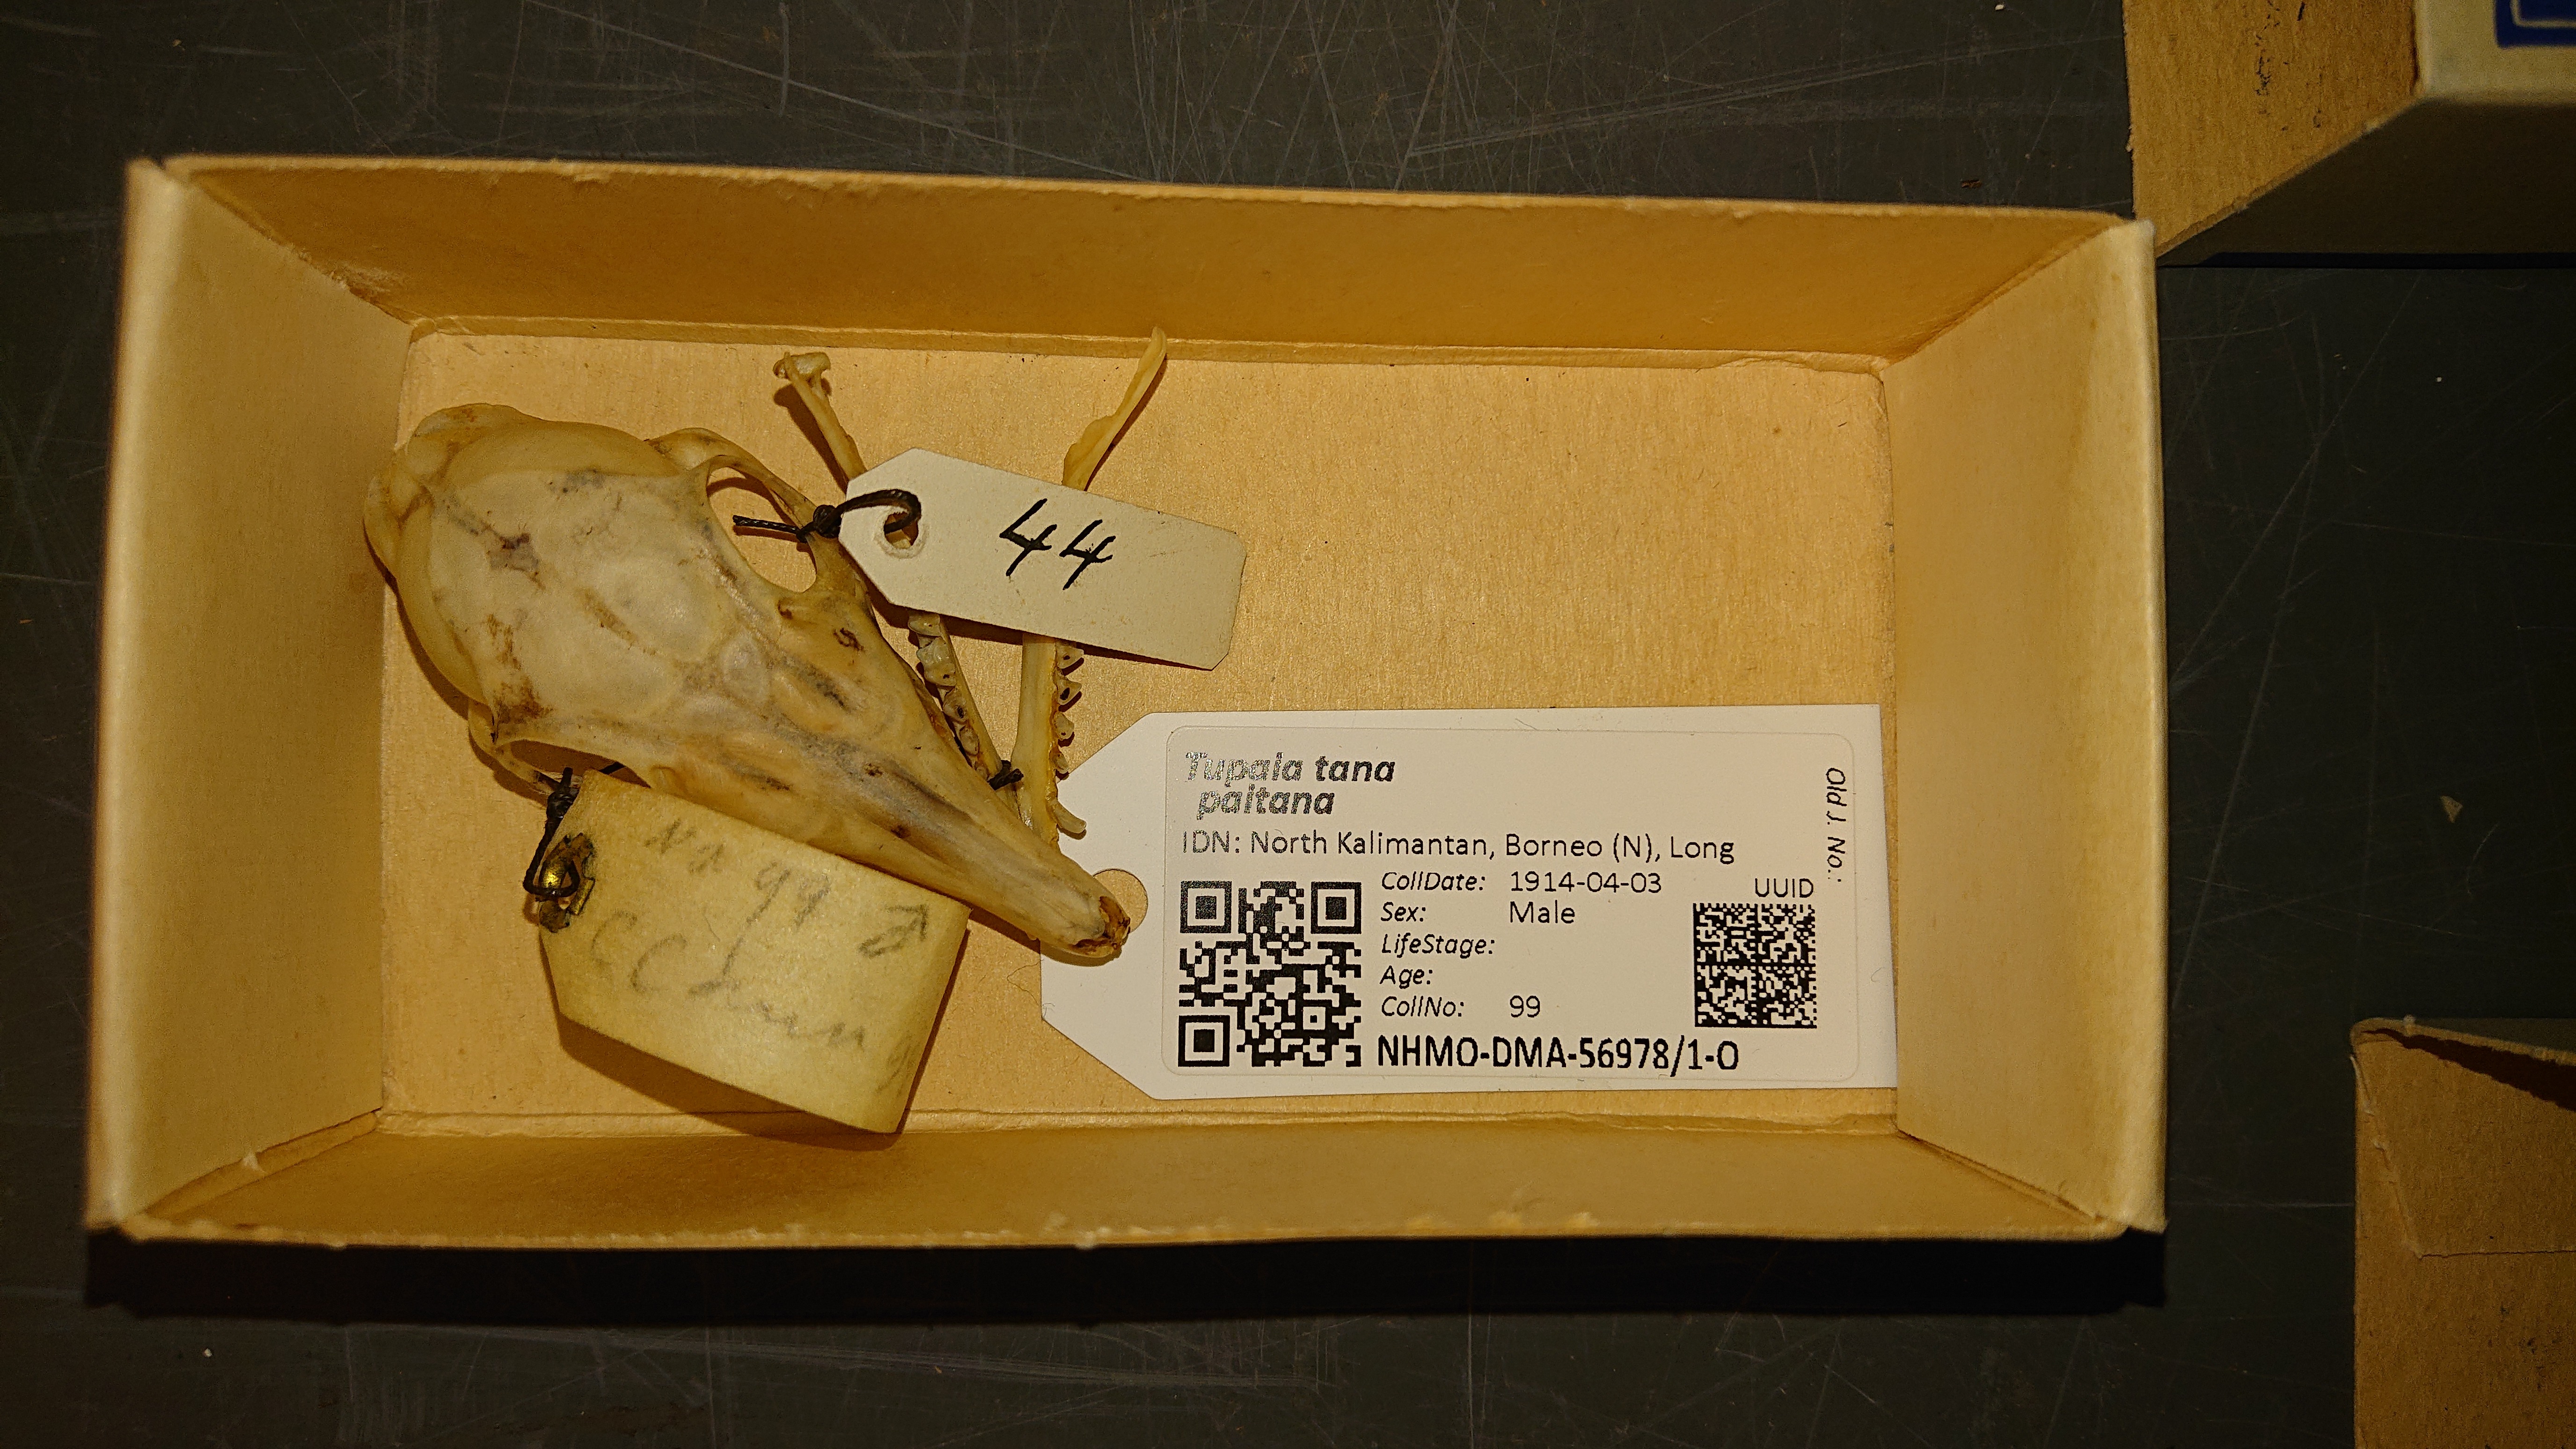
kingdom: Animalia
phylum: Chordata
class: Mammalia
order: Scandentia
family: Tupaiidae
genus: Tupaia
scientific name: Tupaia tana
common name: Large treeshrew
